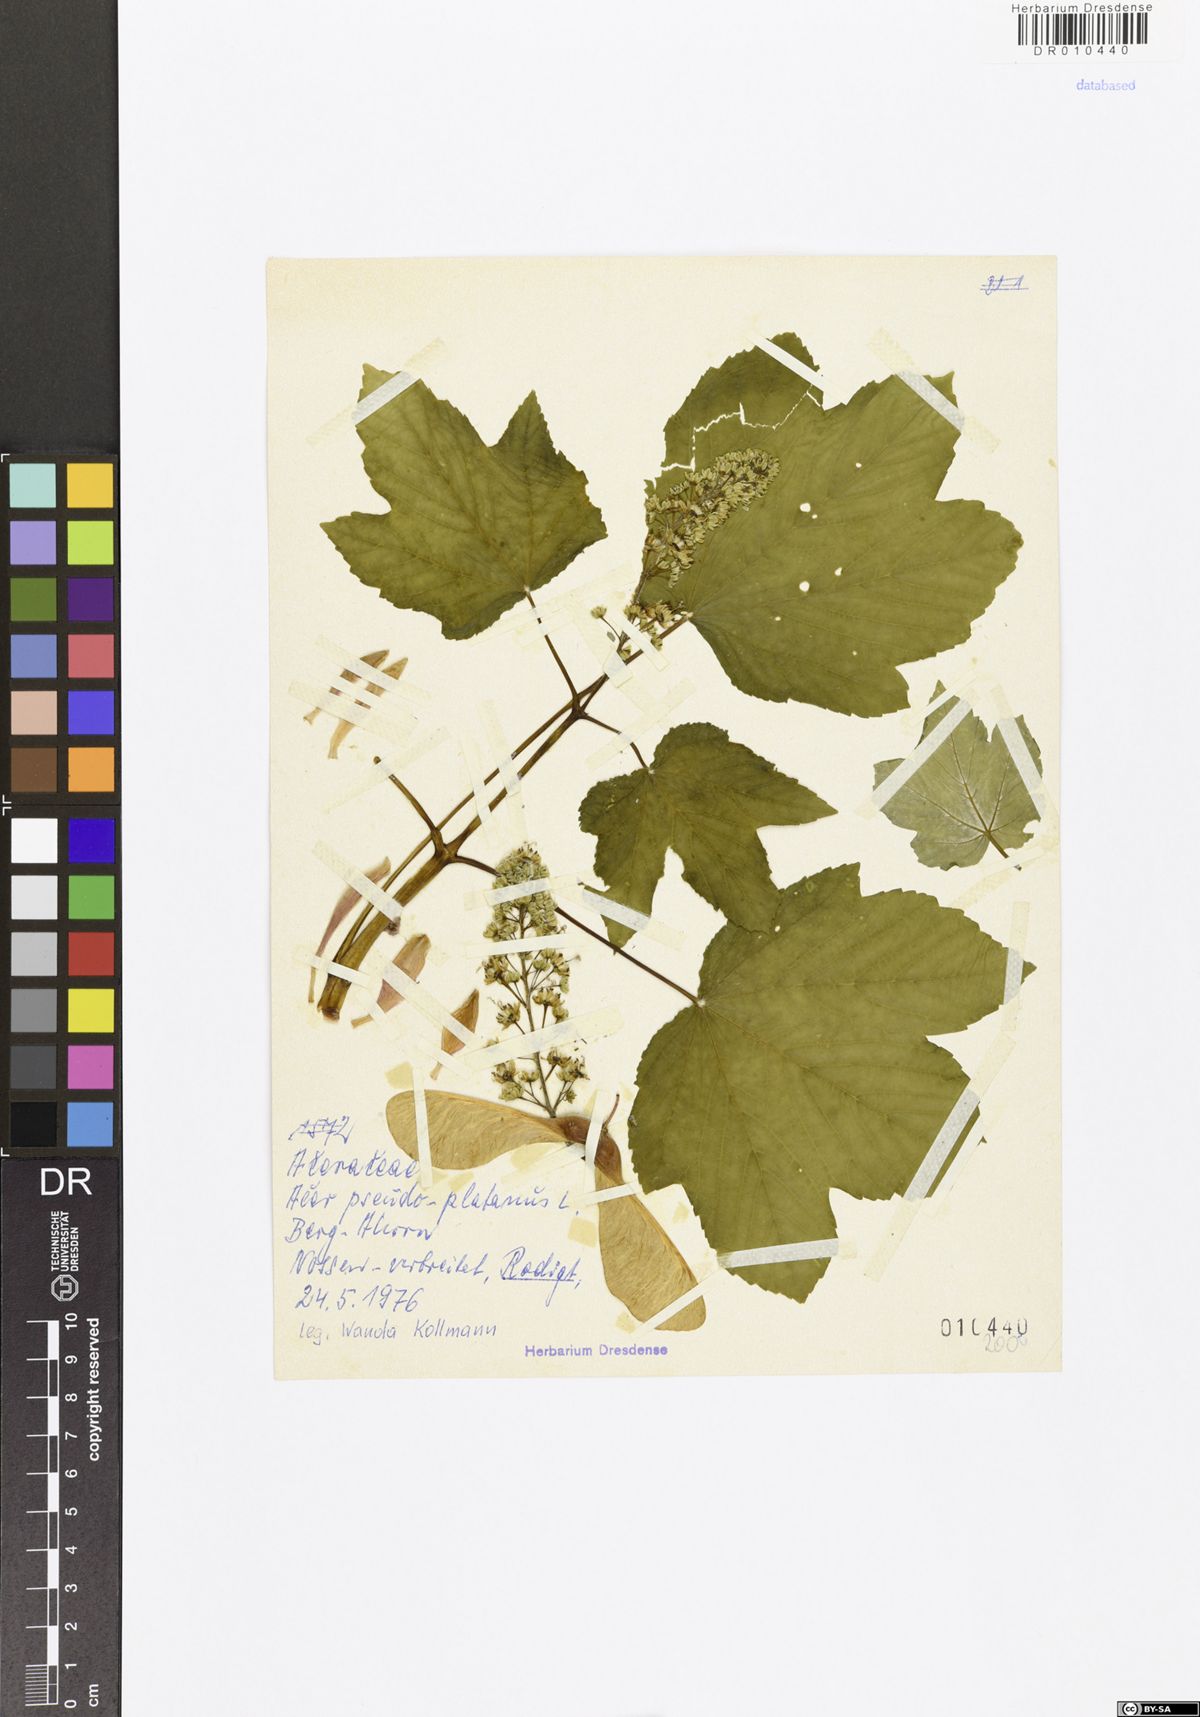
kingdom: Plantae
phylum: Tracheophyta
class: Magnoliopsida
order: Sapindales
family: Sapindaceae
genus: Acer
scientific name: Acer pseudoplatanus
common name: Sycamore
